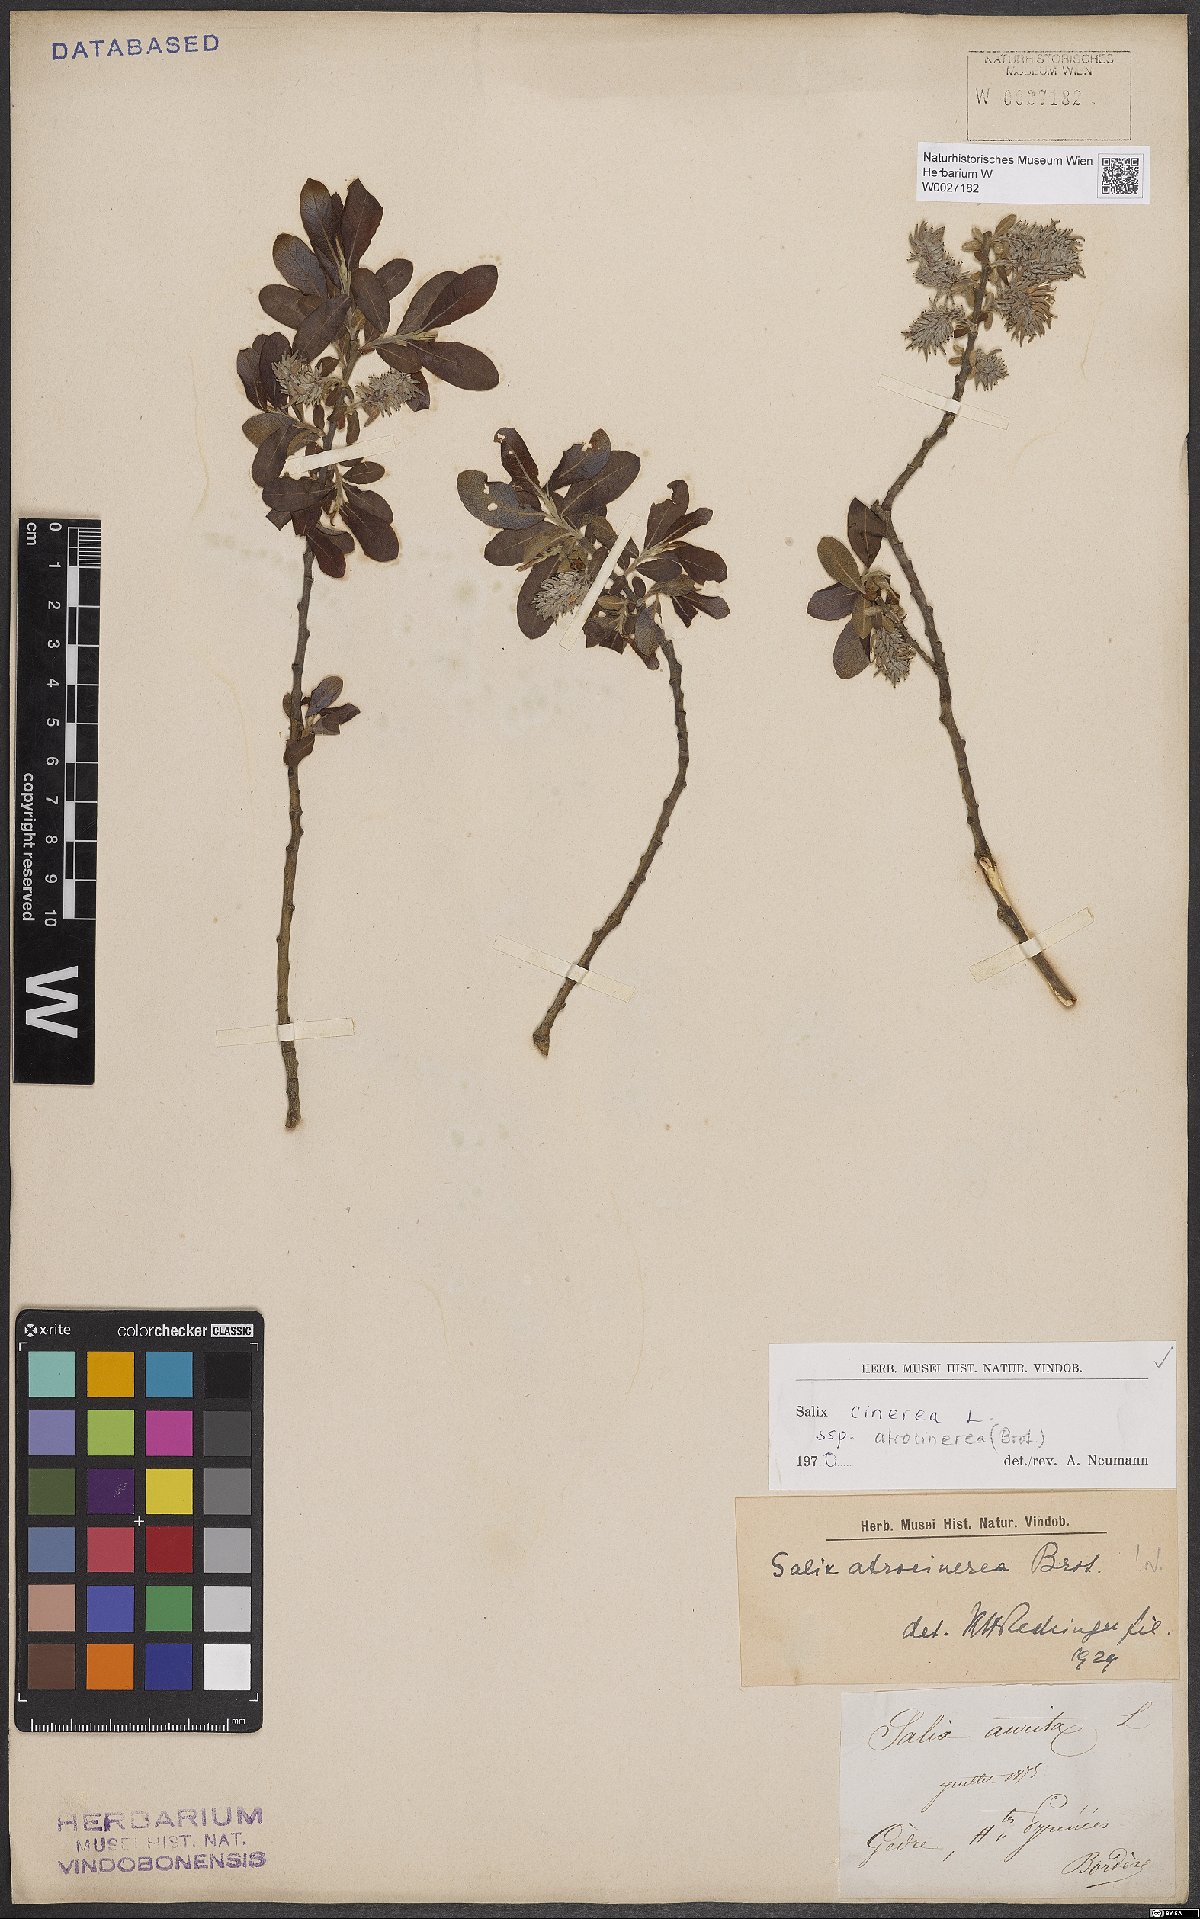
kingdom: Plantae
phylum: Tracheophyta
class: Magnoliopsida
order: Malpighiales
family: Salicaceae
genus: Salix
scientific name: Salix atrocinerea
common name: Rusty willow
